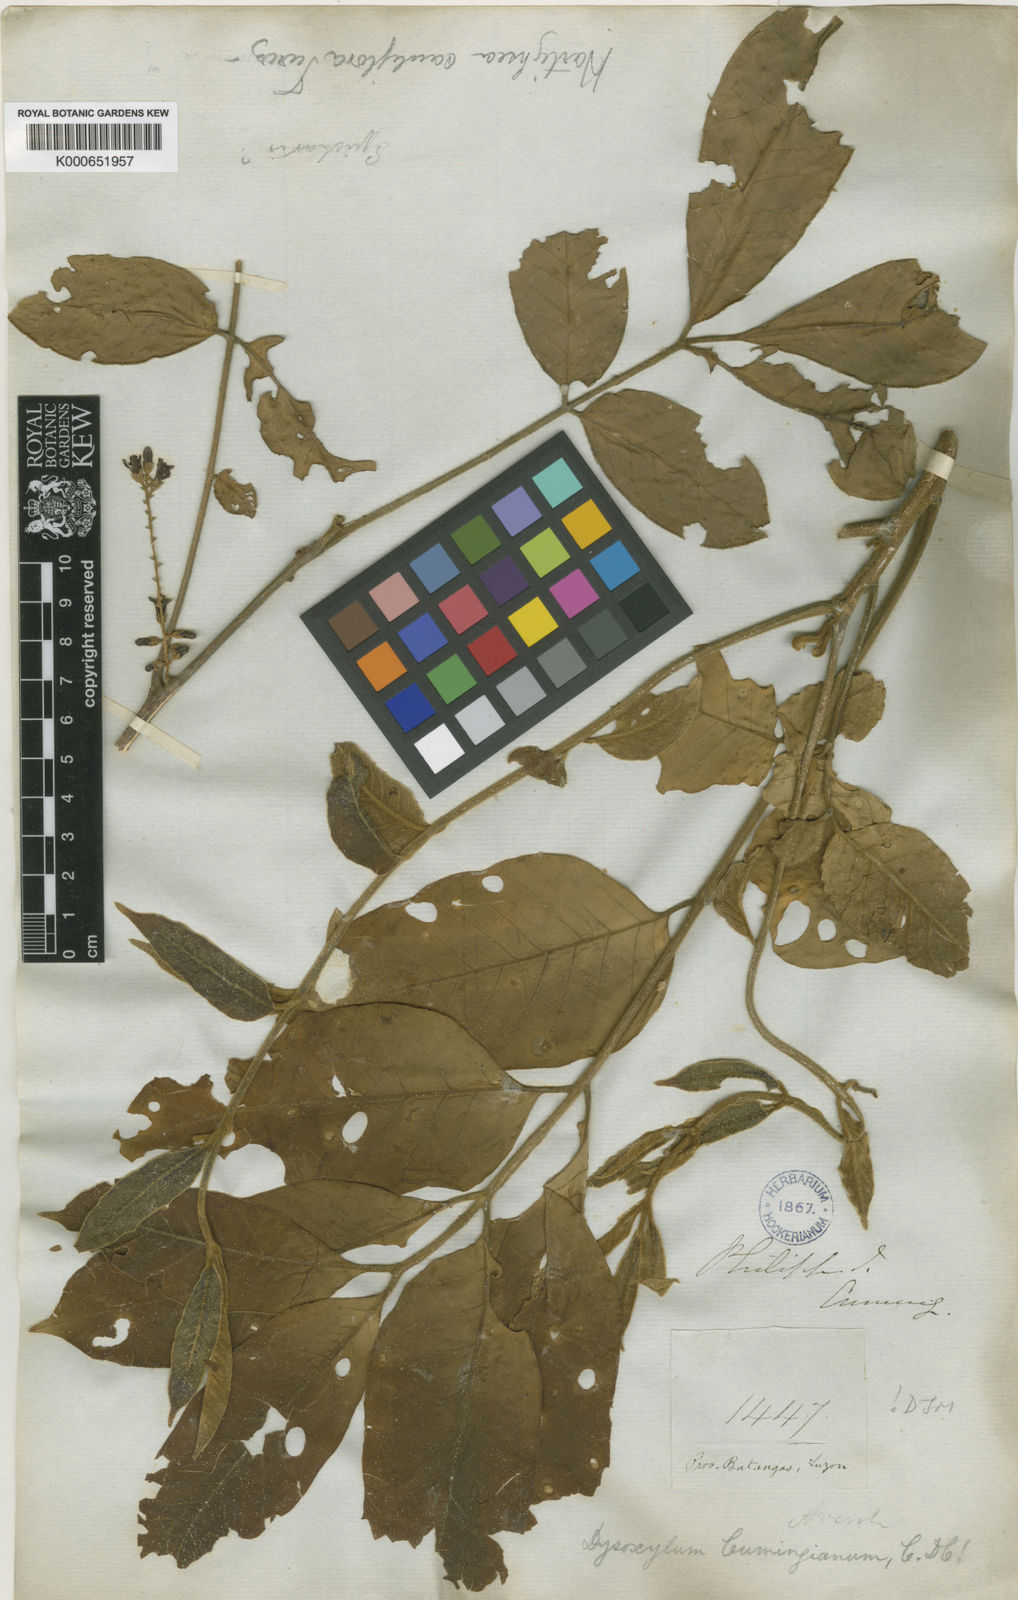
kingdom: Plantae
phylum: Tracheophyta
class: Magnoliopsida
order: Sapindales
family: Meliaceae
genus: Epicharis
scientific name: Epicharis cumingiana
